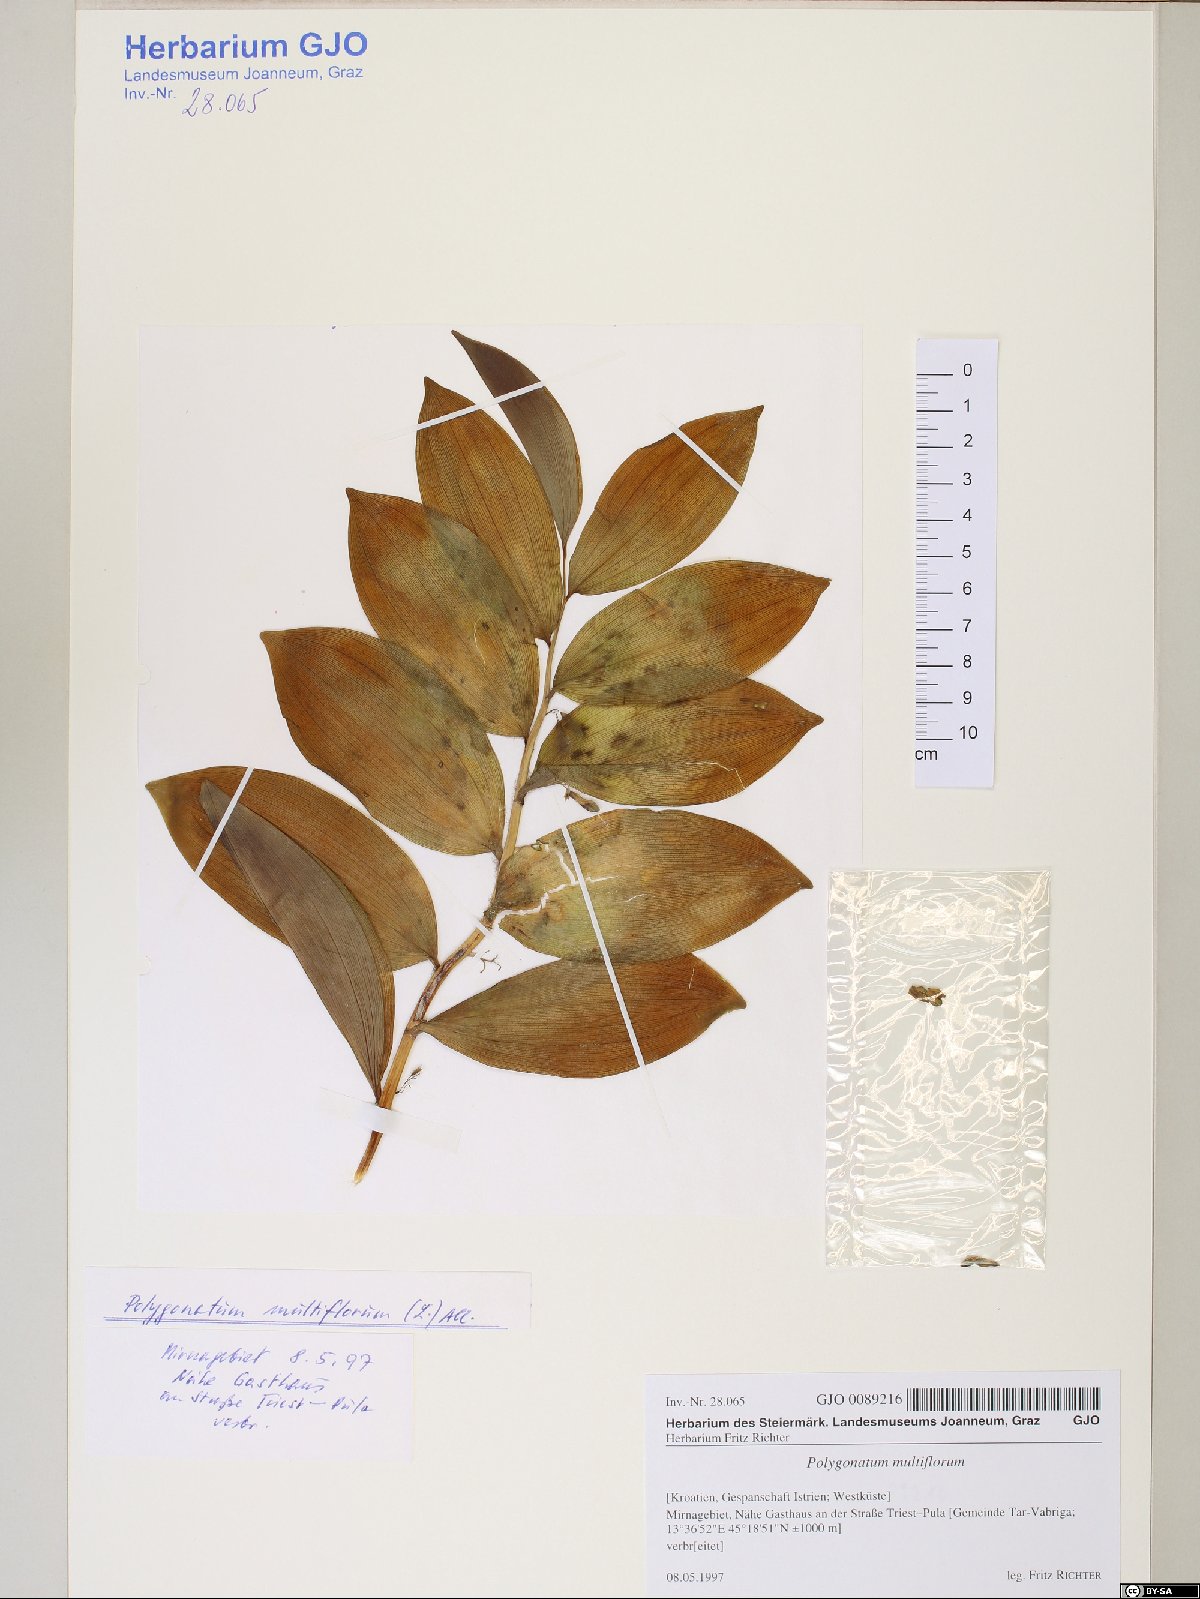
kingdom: Plantae
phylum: Tracheophyta
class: Liliopsida
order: Asparagales
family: Asparagaceae
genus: Polygonatum
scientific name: Polygonatum multiflorum
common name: Solomon's-seal
